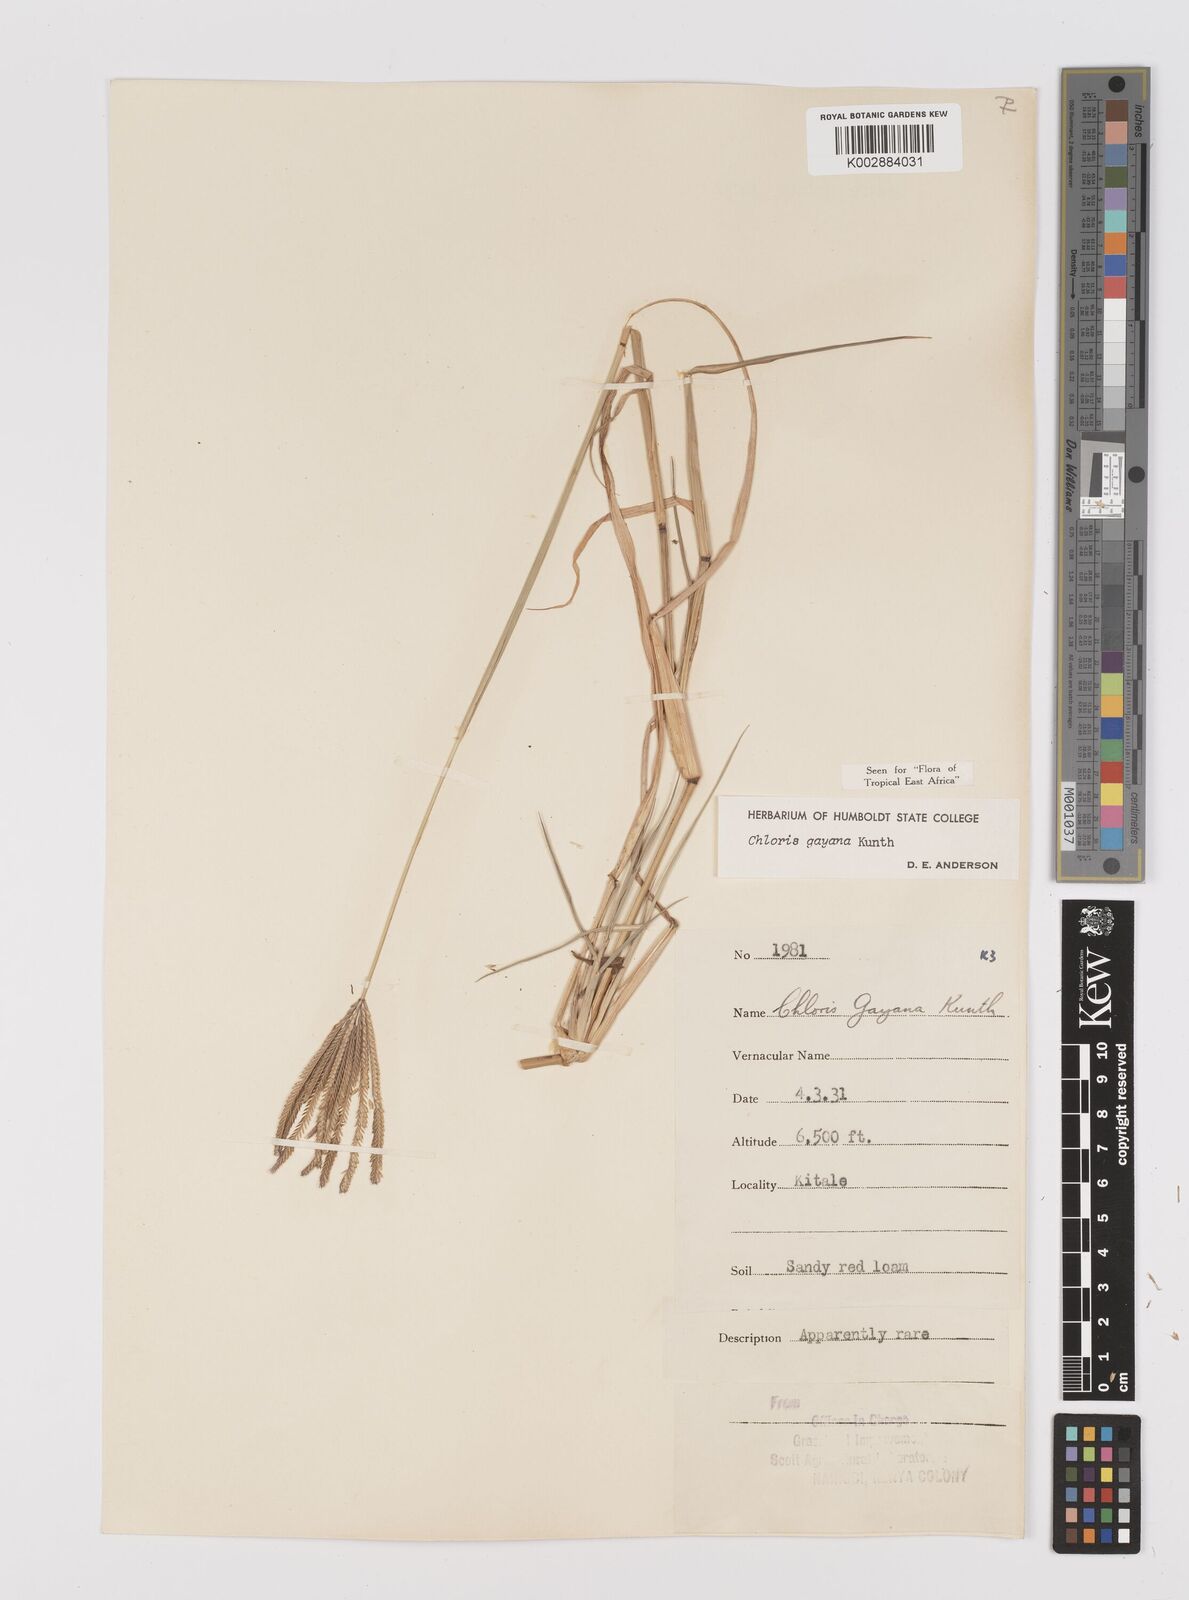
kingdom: Plantae
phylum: Tracheophyta
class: Liliopsida
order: Poales
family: Poaceae
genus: Chloris
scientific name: Chloris gayana
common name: Rhodes grass
